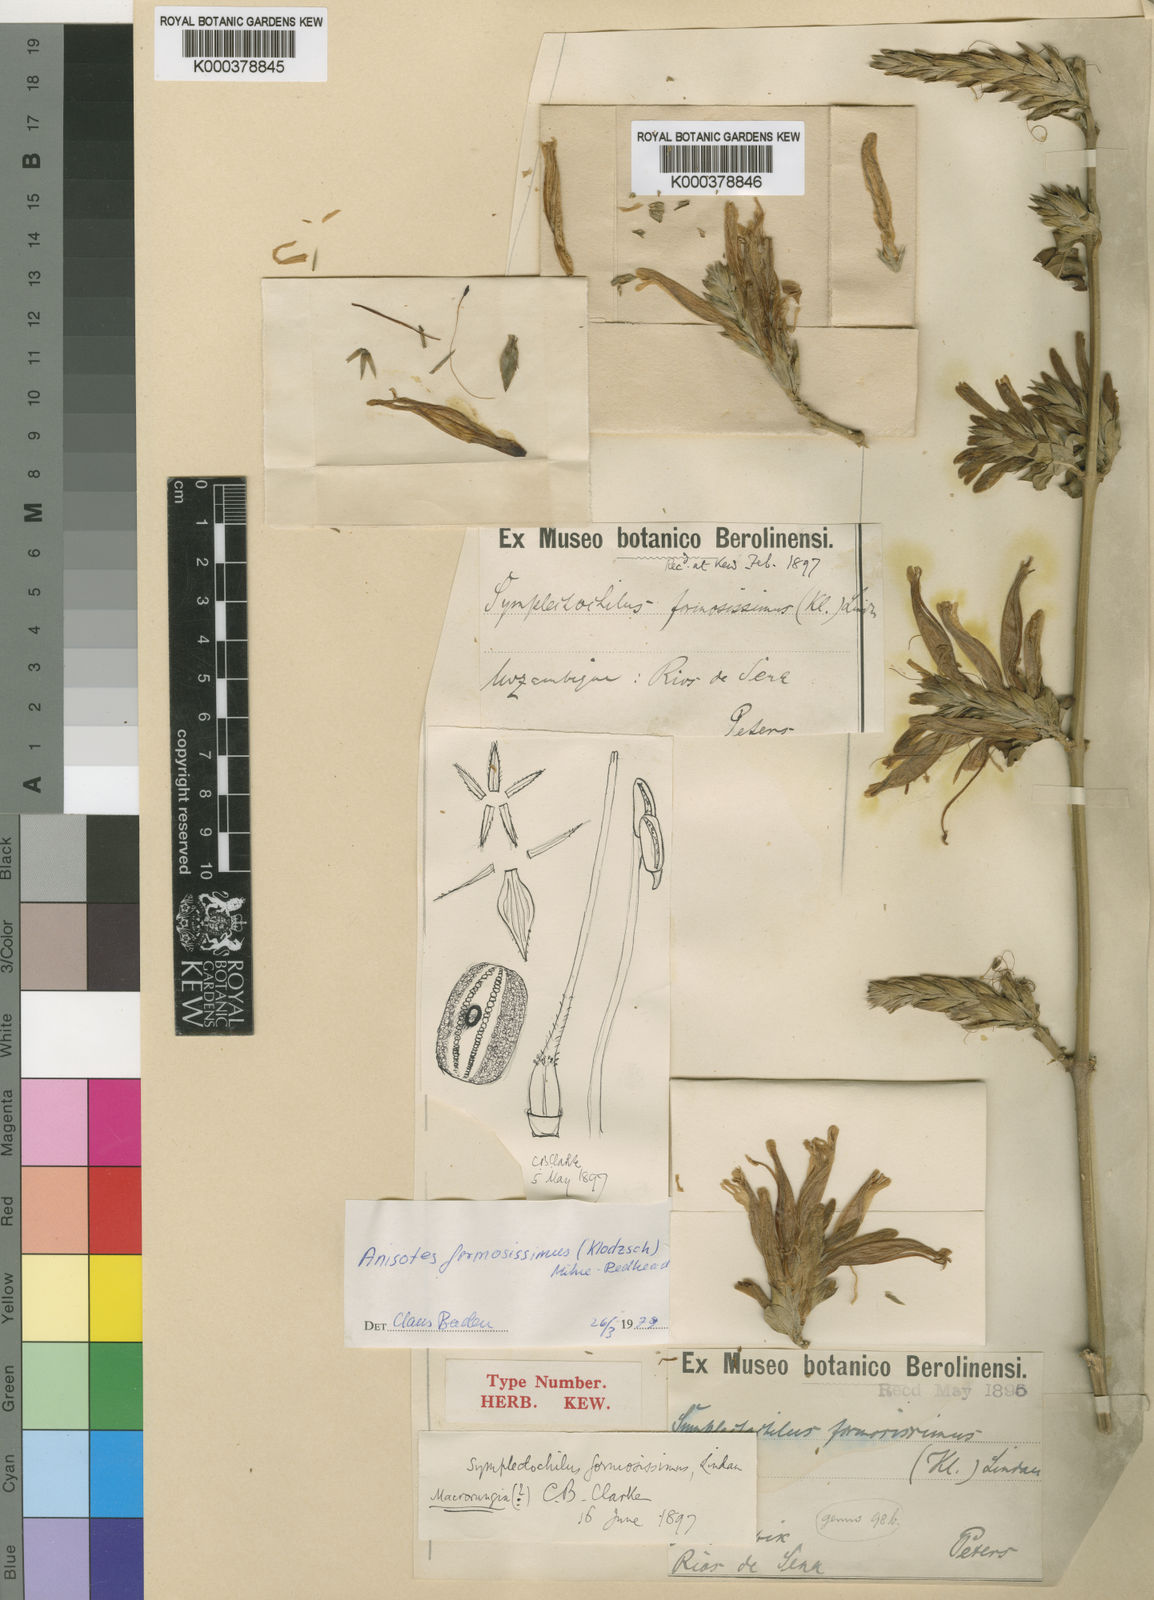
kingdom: Plantae
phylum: Tracheophyta
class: Magnoliopsida
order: Lamiales
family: Acanthaceae
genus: Anisotes
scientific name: Anisotes formosissimus
